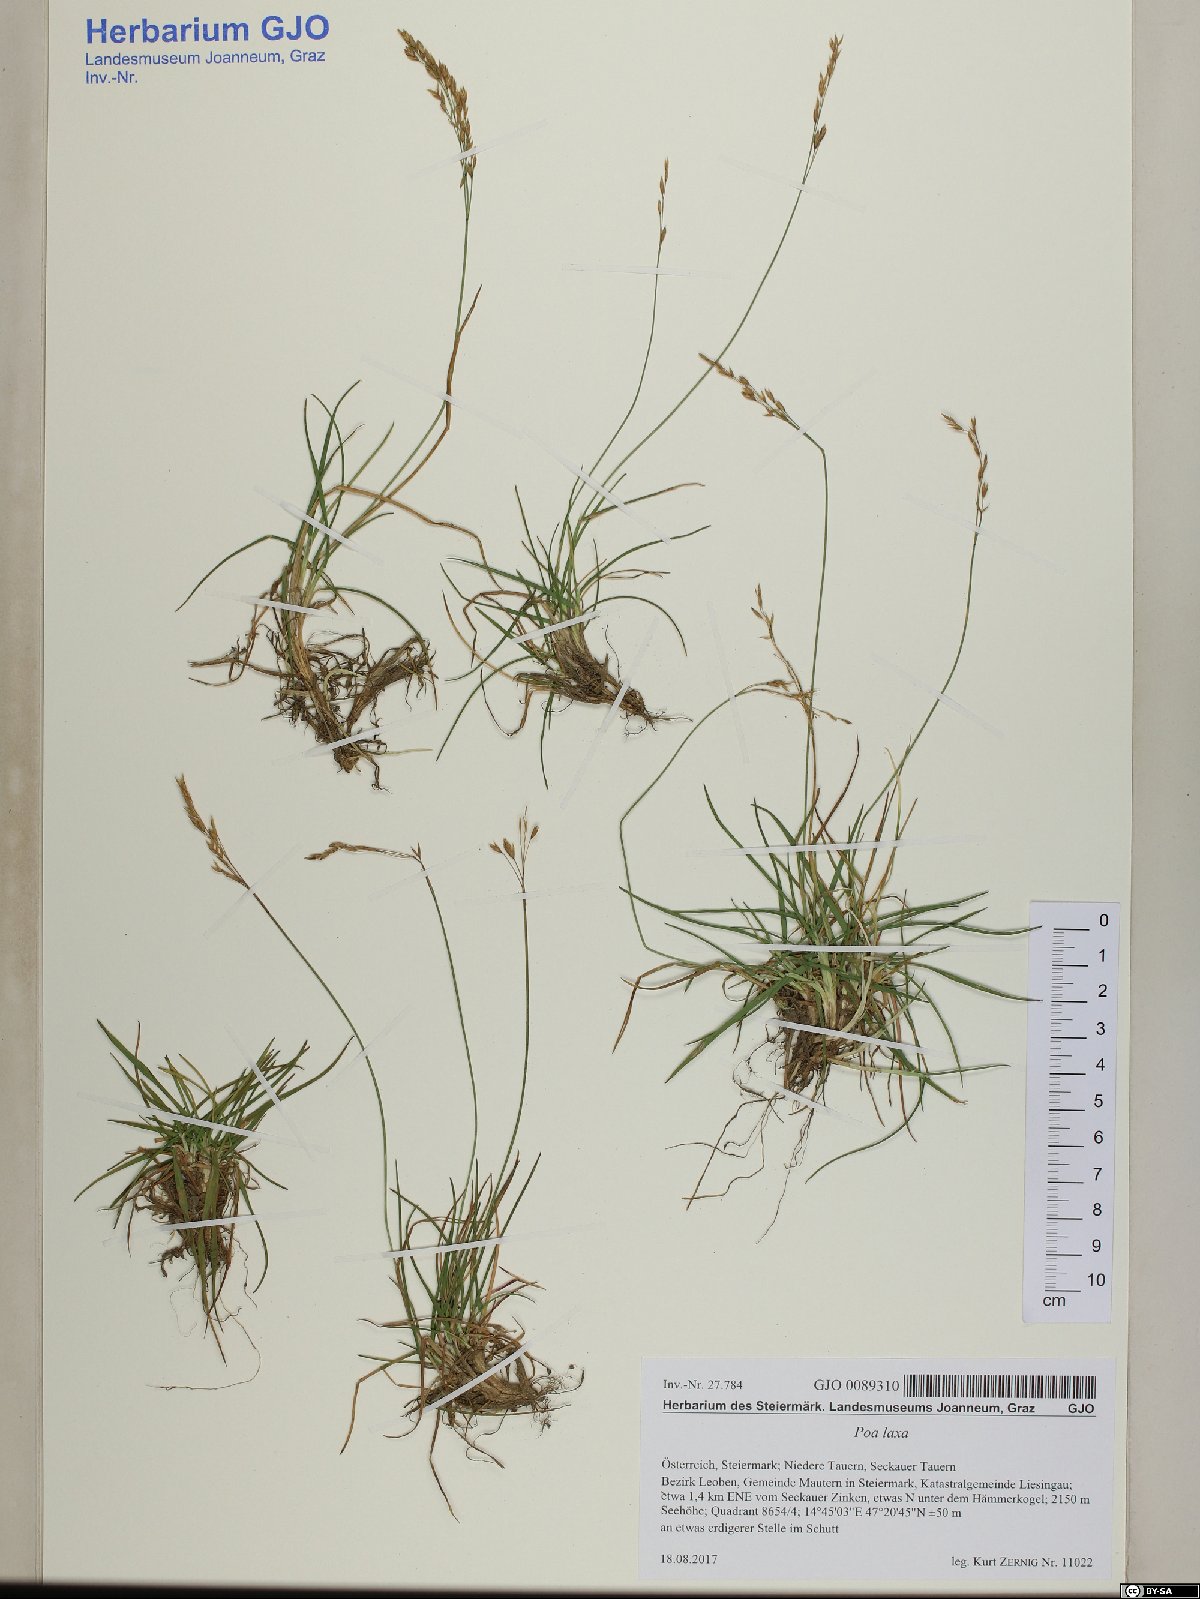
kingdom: Plantae
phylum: Tracheophyta
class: Liliopsida
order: Poales
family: Poaceae
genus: Poa
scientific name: Poa laxa
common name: Lax bluegrass
